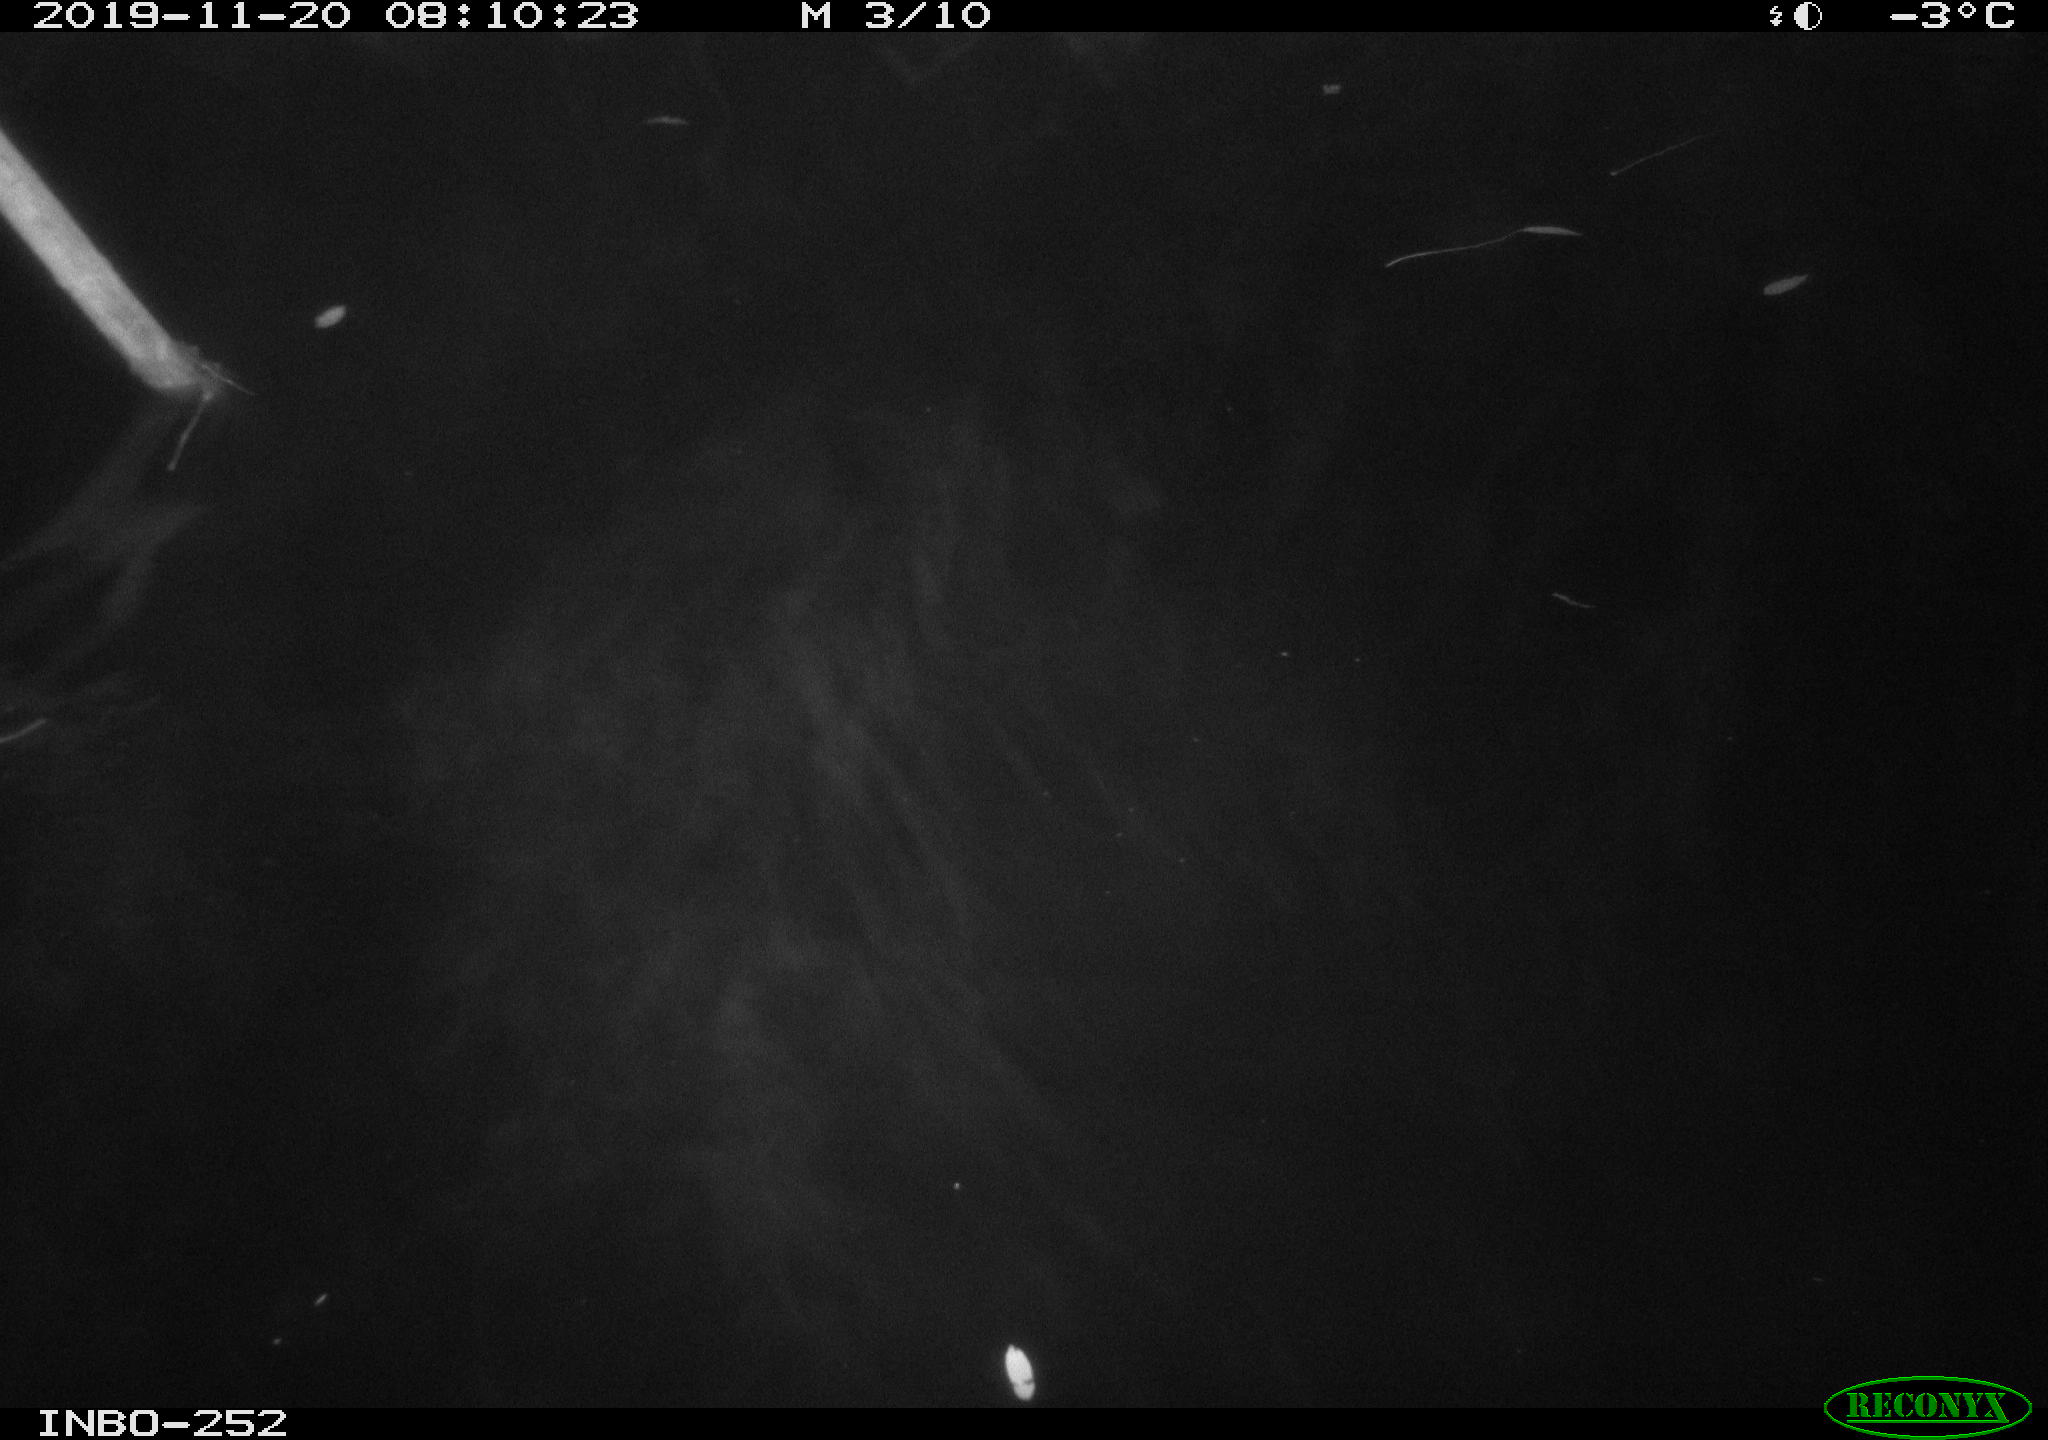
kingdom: Animalia
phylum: Chordata
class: Aves
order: Anseriformes
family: Anatidae
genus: Anas
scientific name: Anas platyrhynchos
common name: Mallard
